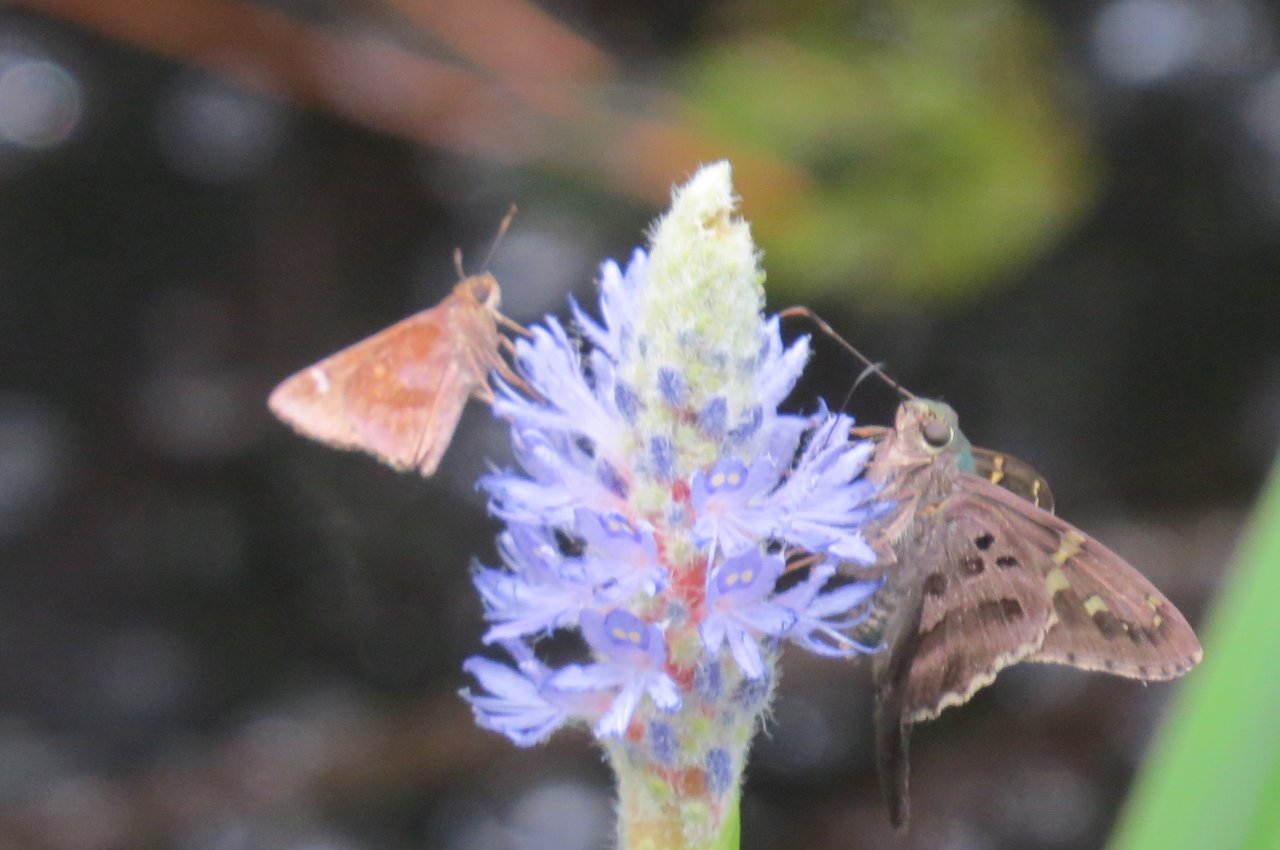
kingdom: Animalia
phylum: Arthropoda
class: Insecta
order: Lepidoptera
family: Hesperiidae
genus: Lerema
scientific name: Lerema accius
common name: Clouded Skipper
